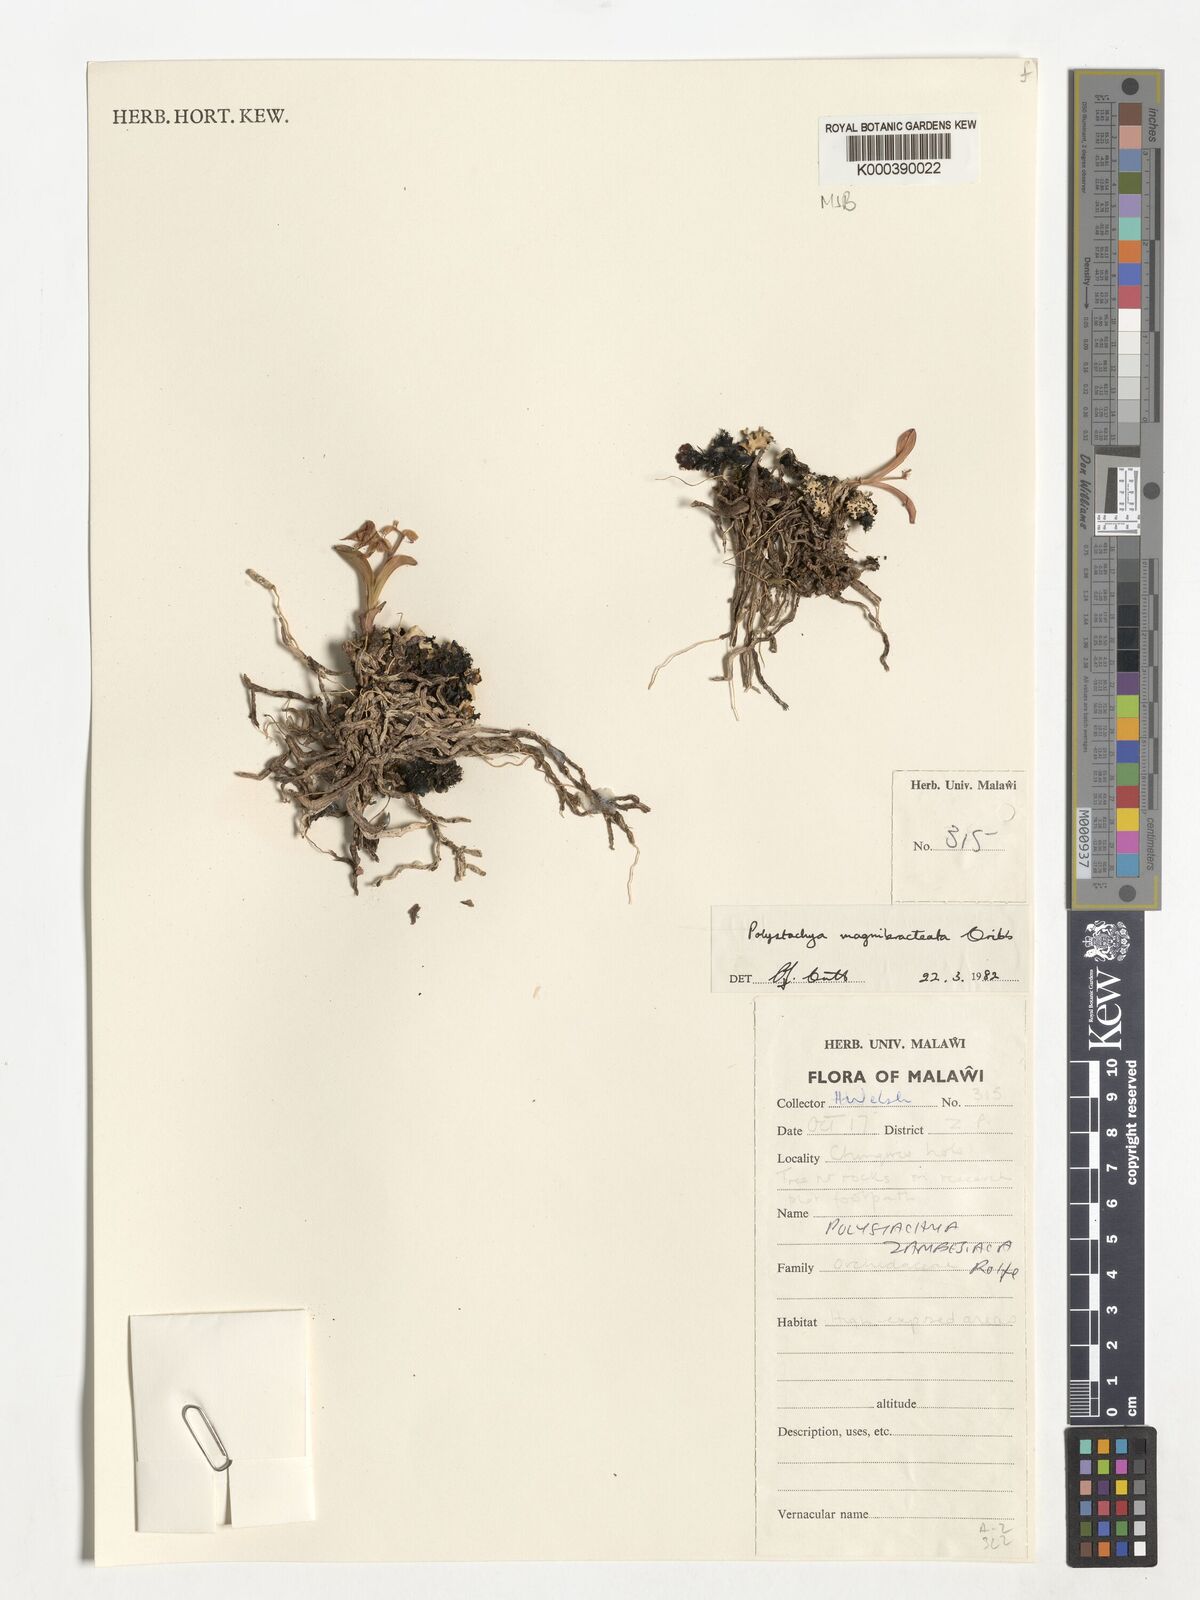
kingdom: Plantae
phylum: Tracheophyta
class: Liliopsida
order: Asparagales
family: Orchidaceae
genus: Polystachya
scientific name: Polystachya magnibracteata
